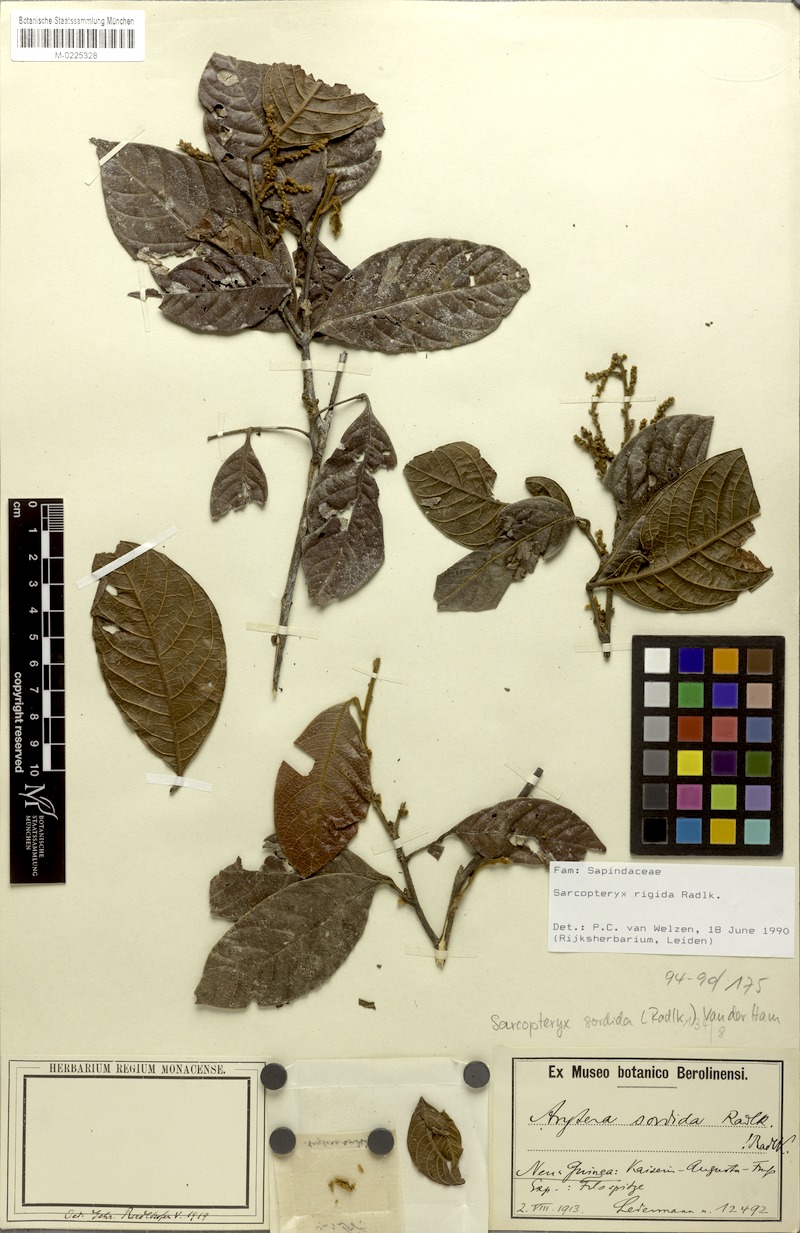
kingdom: Plantae
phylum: Tracheophyta
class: Magnoliopsida
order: Sapindales
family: Sapindaceae
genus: Sarcopteryx
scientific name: Sarcopteryx rigida
